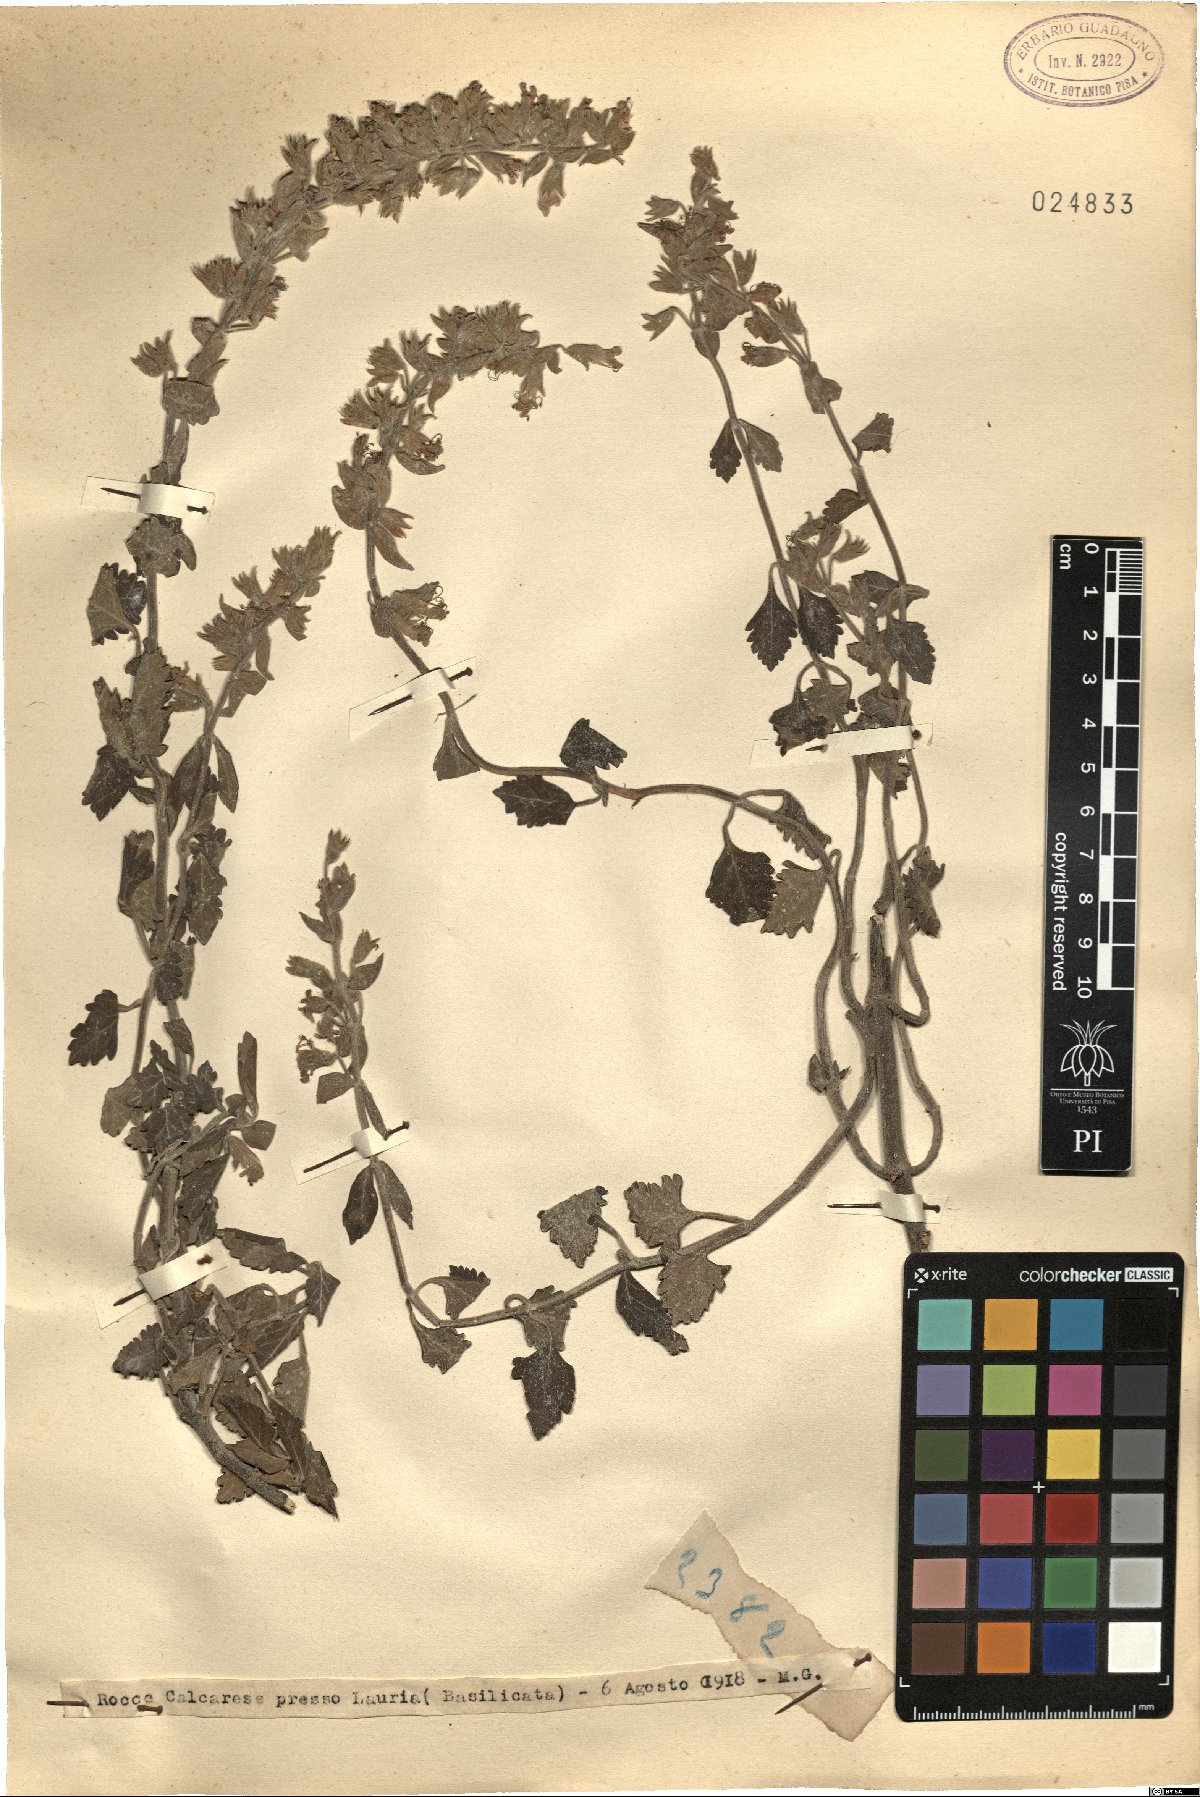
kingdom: Plantae
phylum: Tracheophyta
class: Magnoliopsida
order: Lamiales
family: Lamiaceae
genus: Teucrium
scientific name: Teucrium
